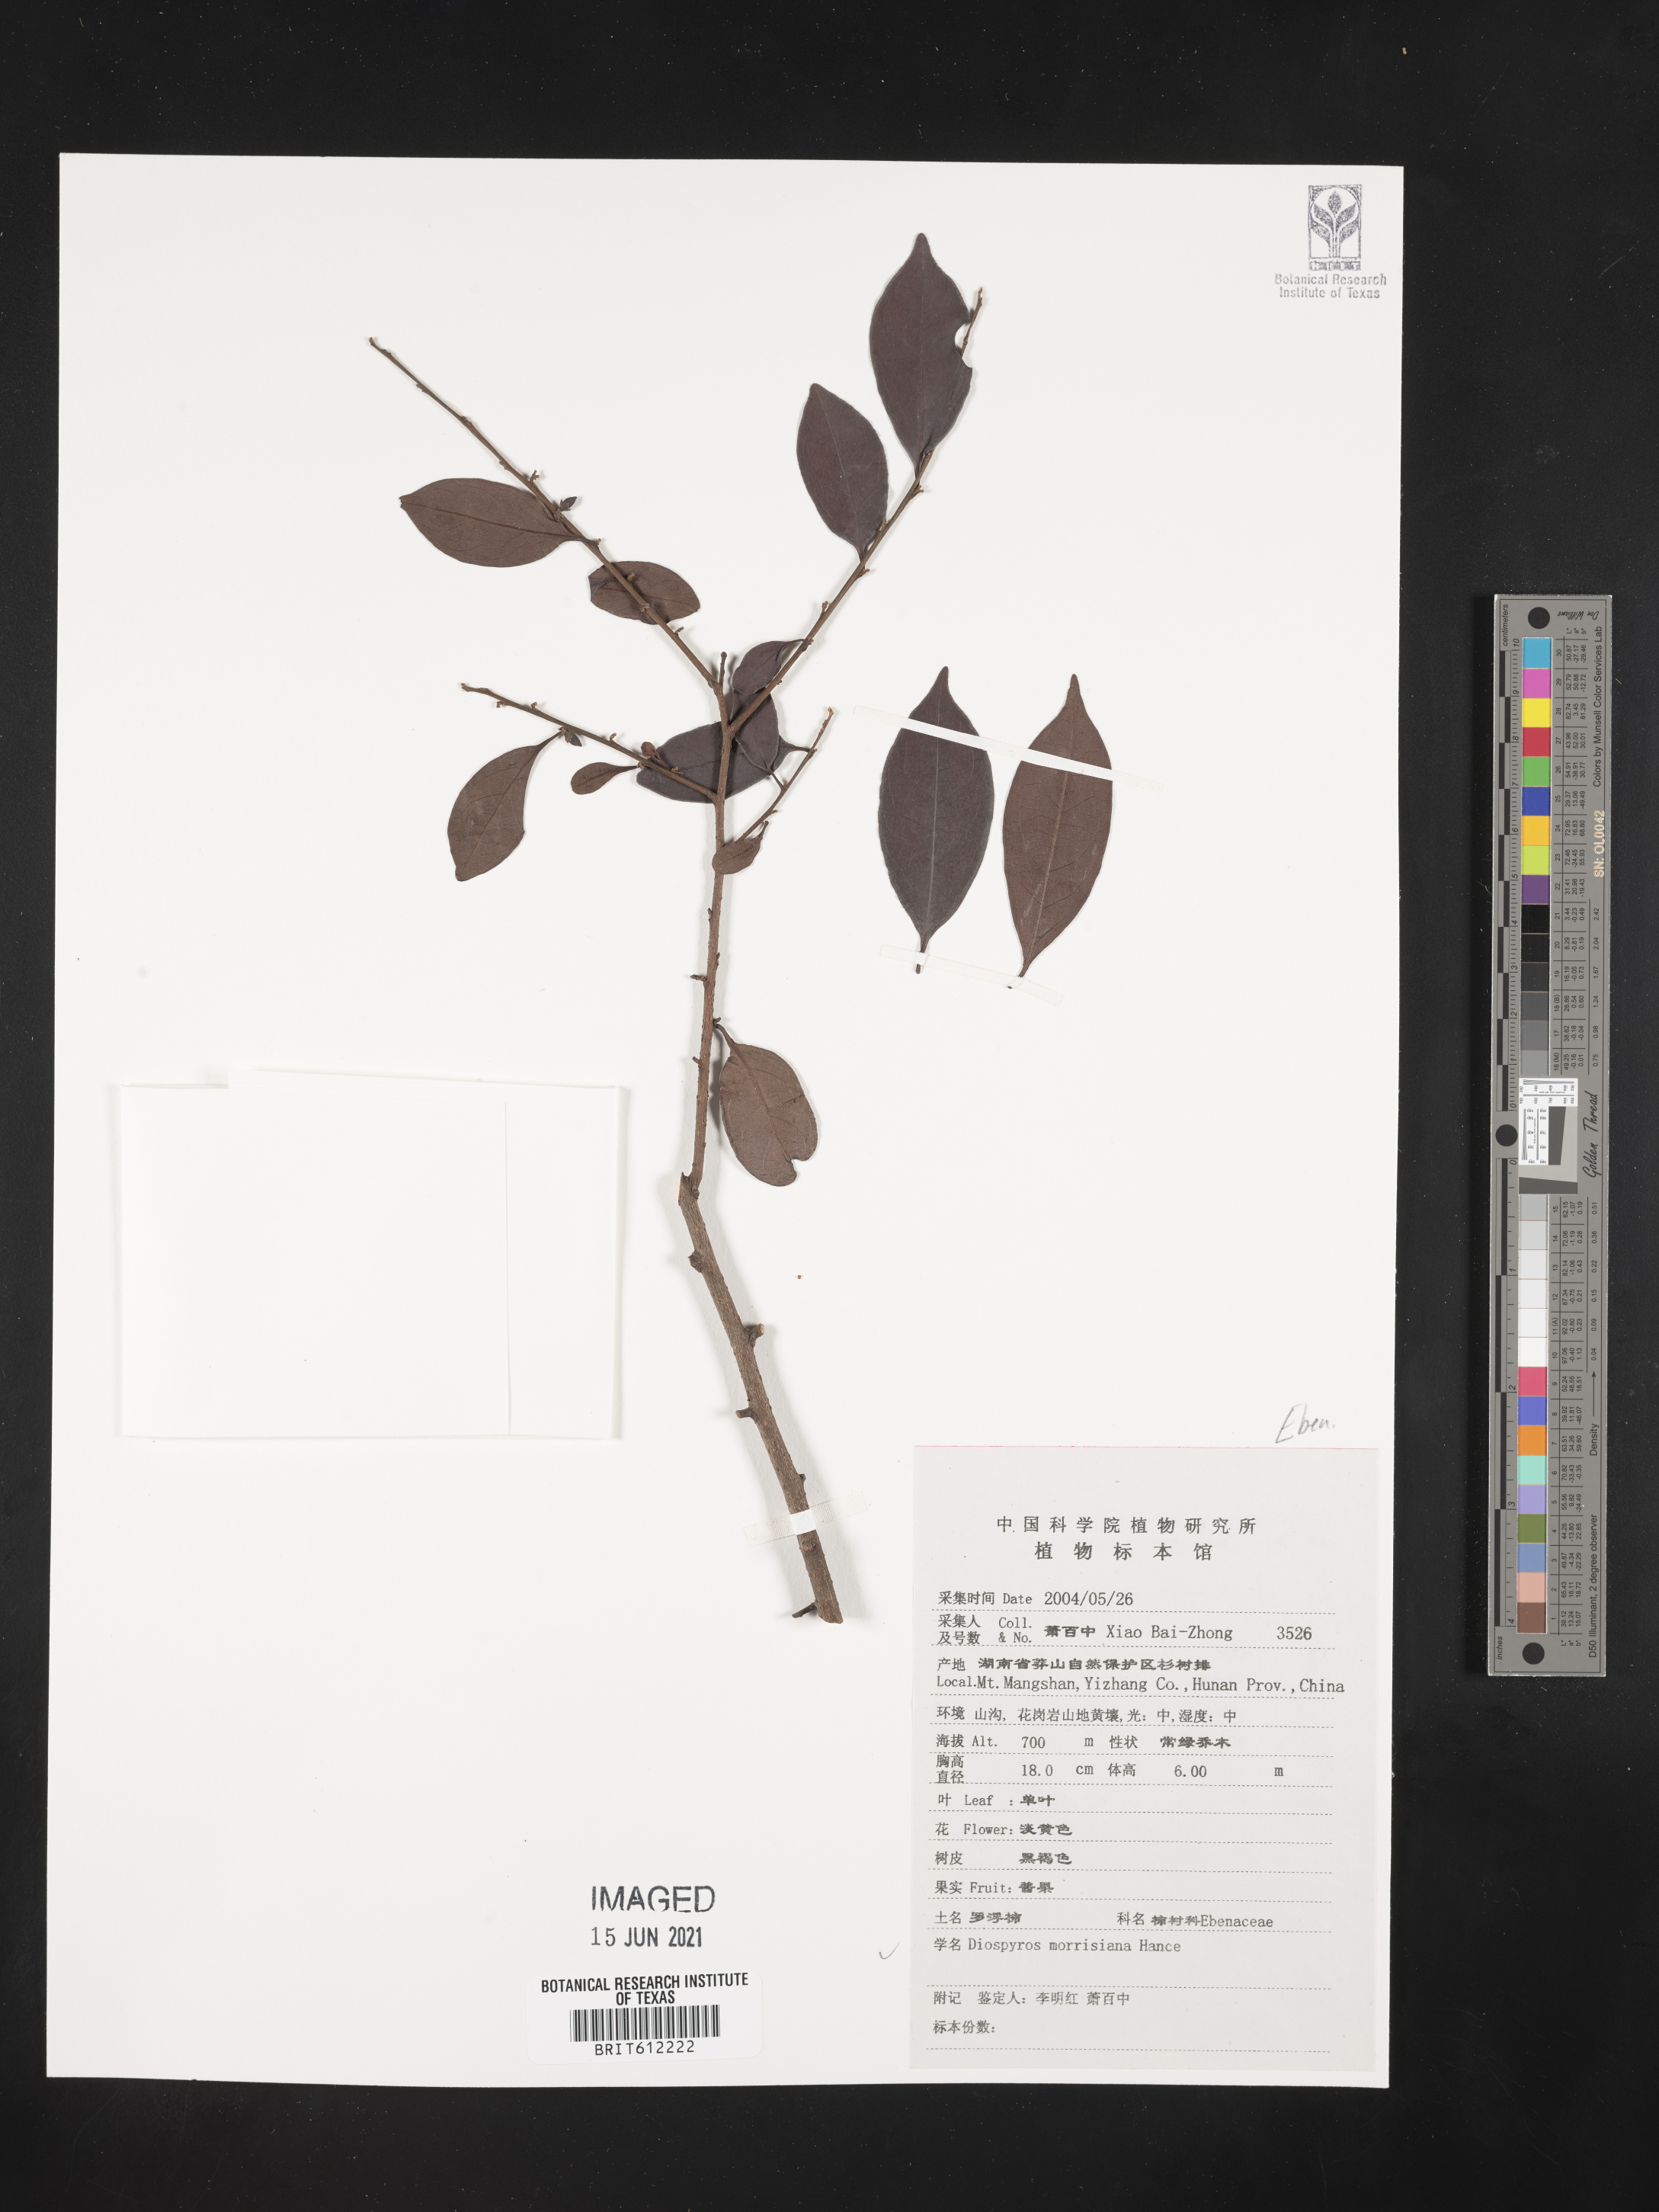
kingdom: Plantae
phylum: Tracheophyta
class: Magnoliopsida
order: Ericales
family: Ebenaceae
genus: Diospyros
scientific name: Diospyros morrisiana
